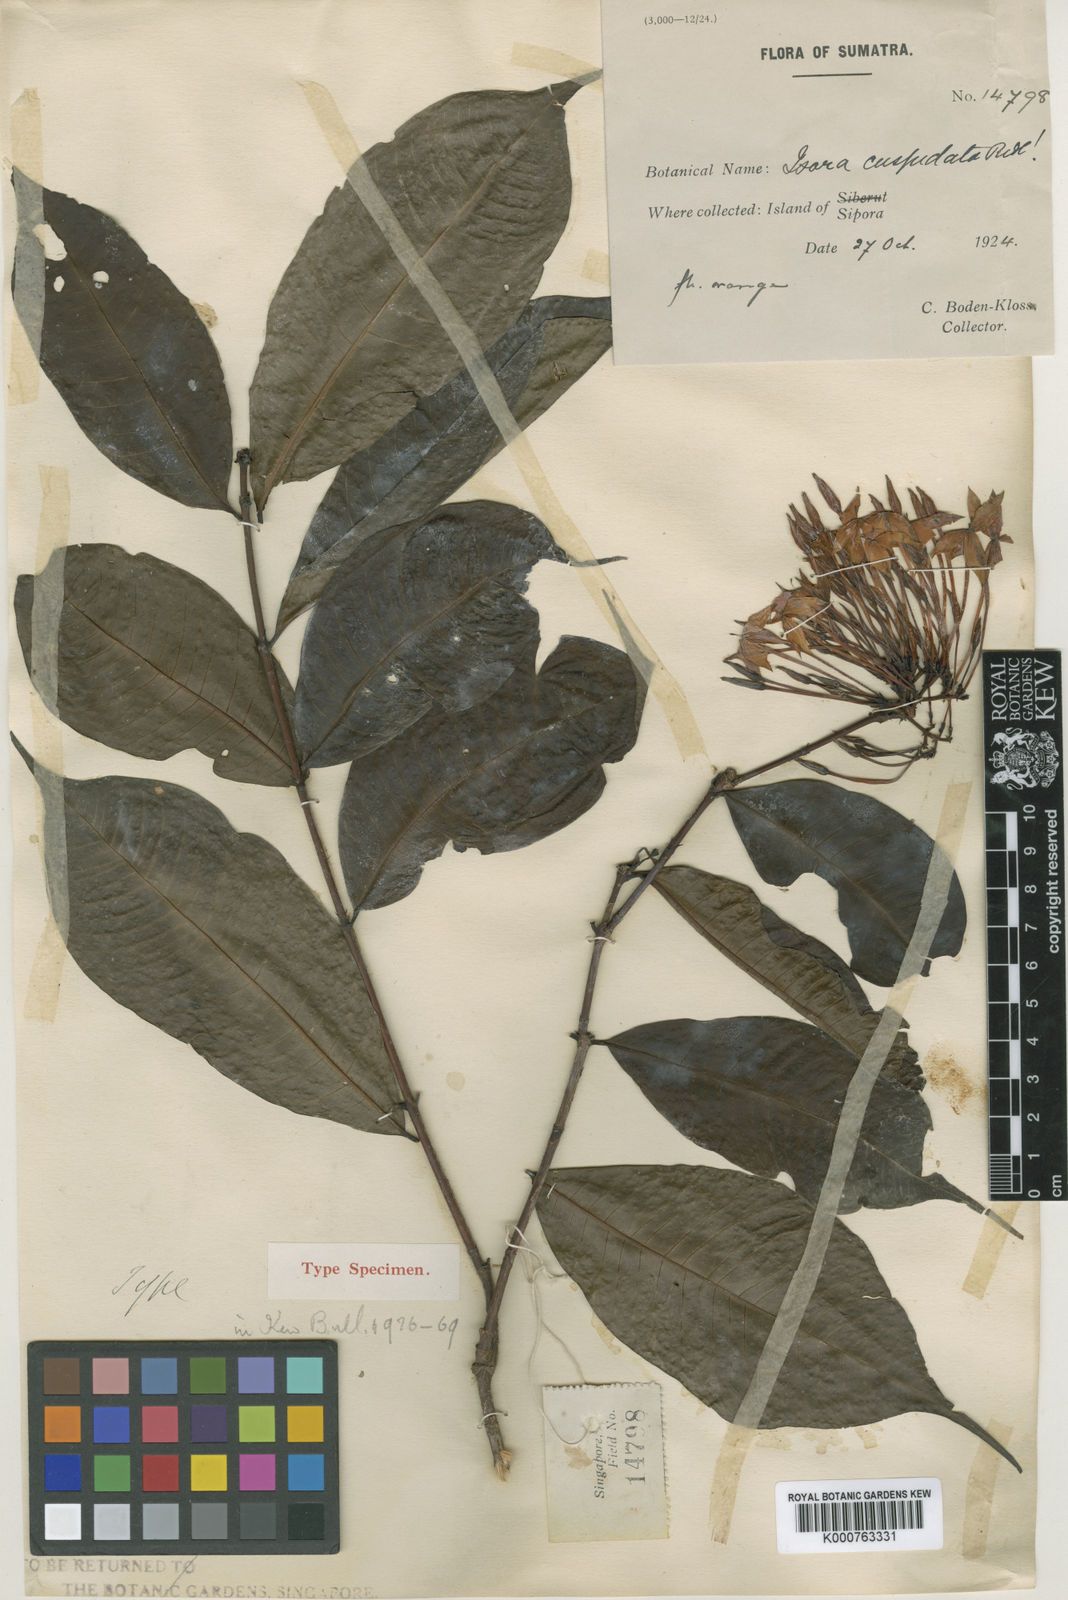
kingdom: Plantae
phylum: Tracheophyta
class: Magnoliopsida
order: Gentianales
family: Rubiaceae
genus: Ixora
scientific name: Ixora cuspidata
